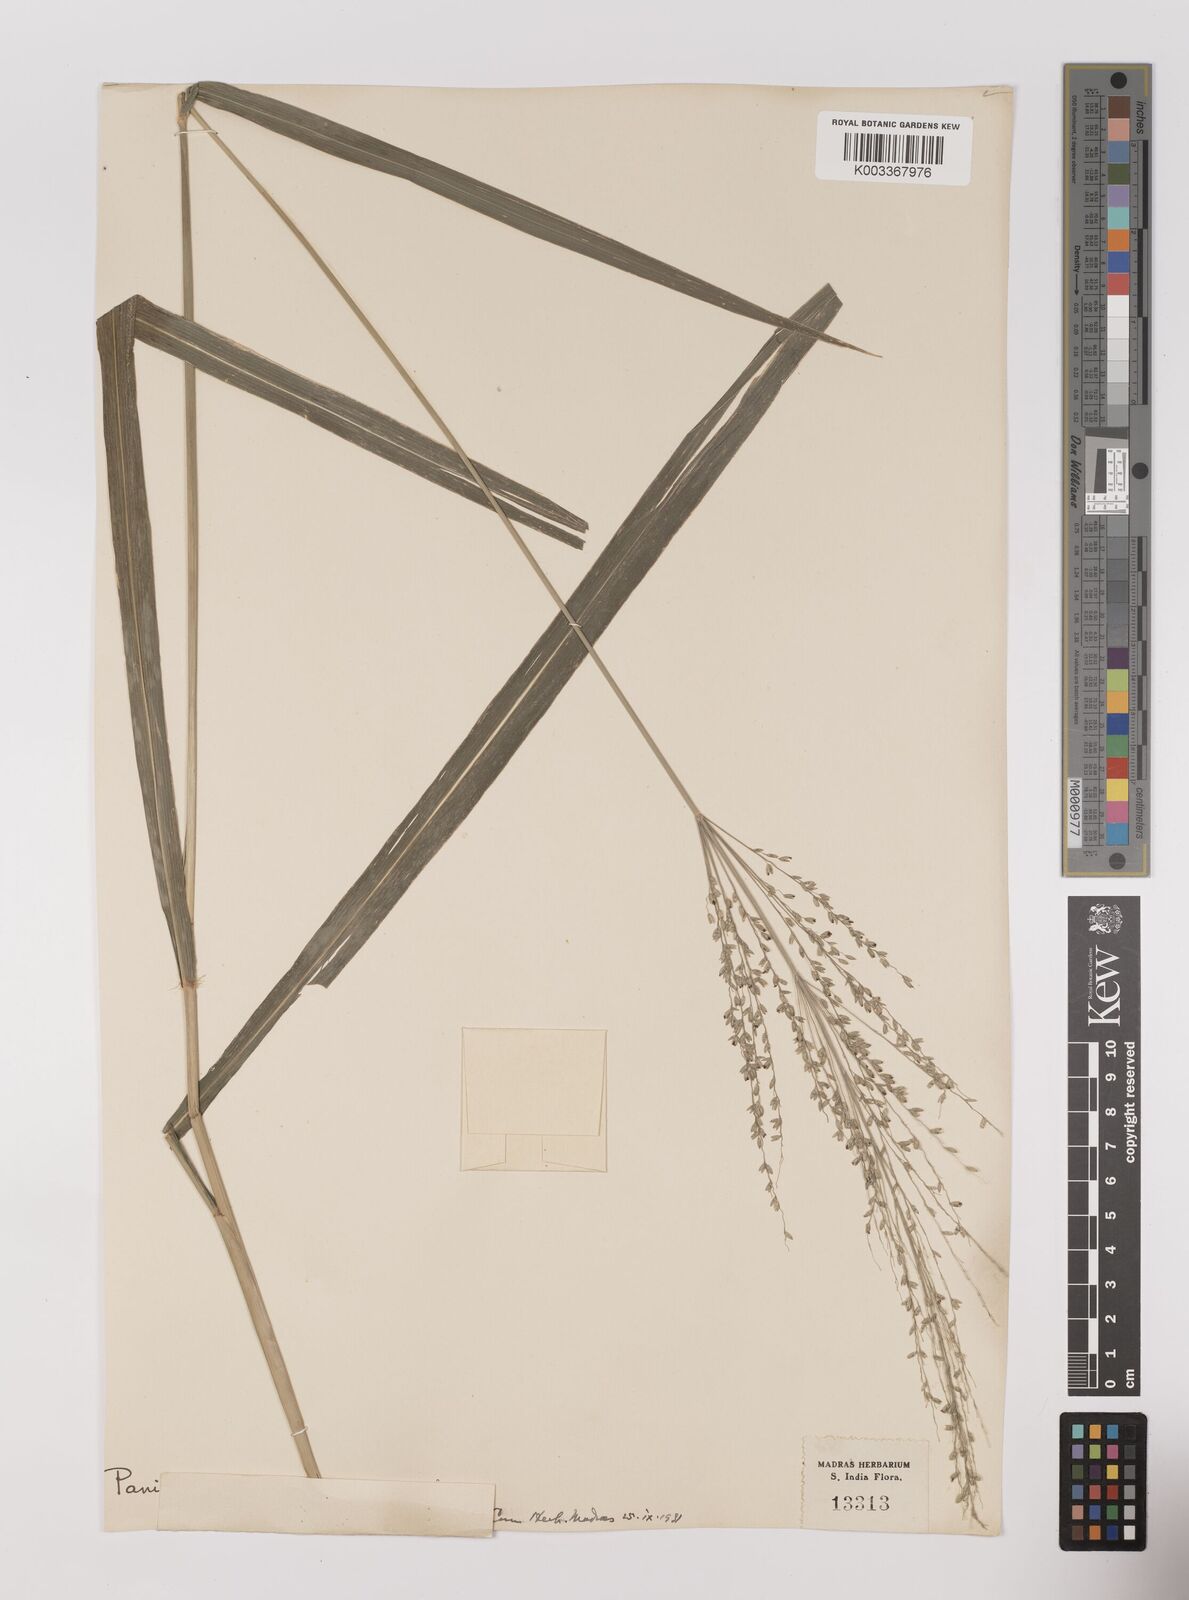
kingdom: Plantae
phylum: Tracheophyta
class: Liliopsida
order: Poales
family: Poaceae
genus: Megathyrsus
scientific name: Megathyrsus maximus
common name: Guineagrass
